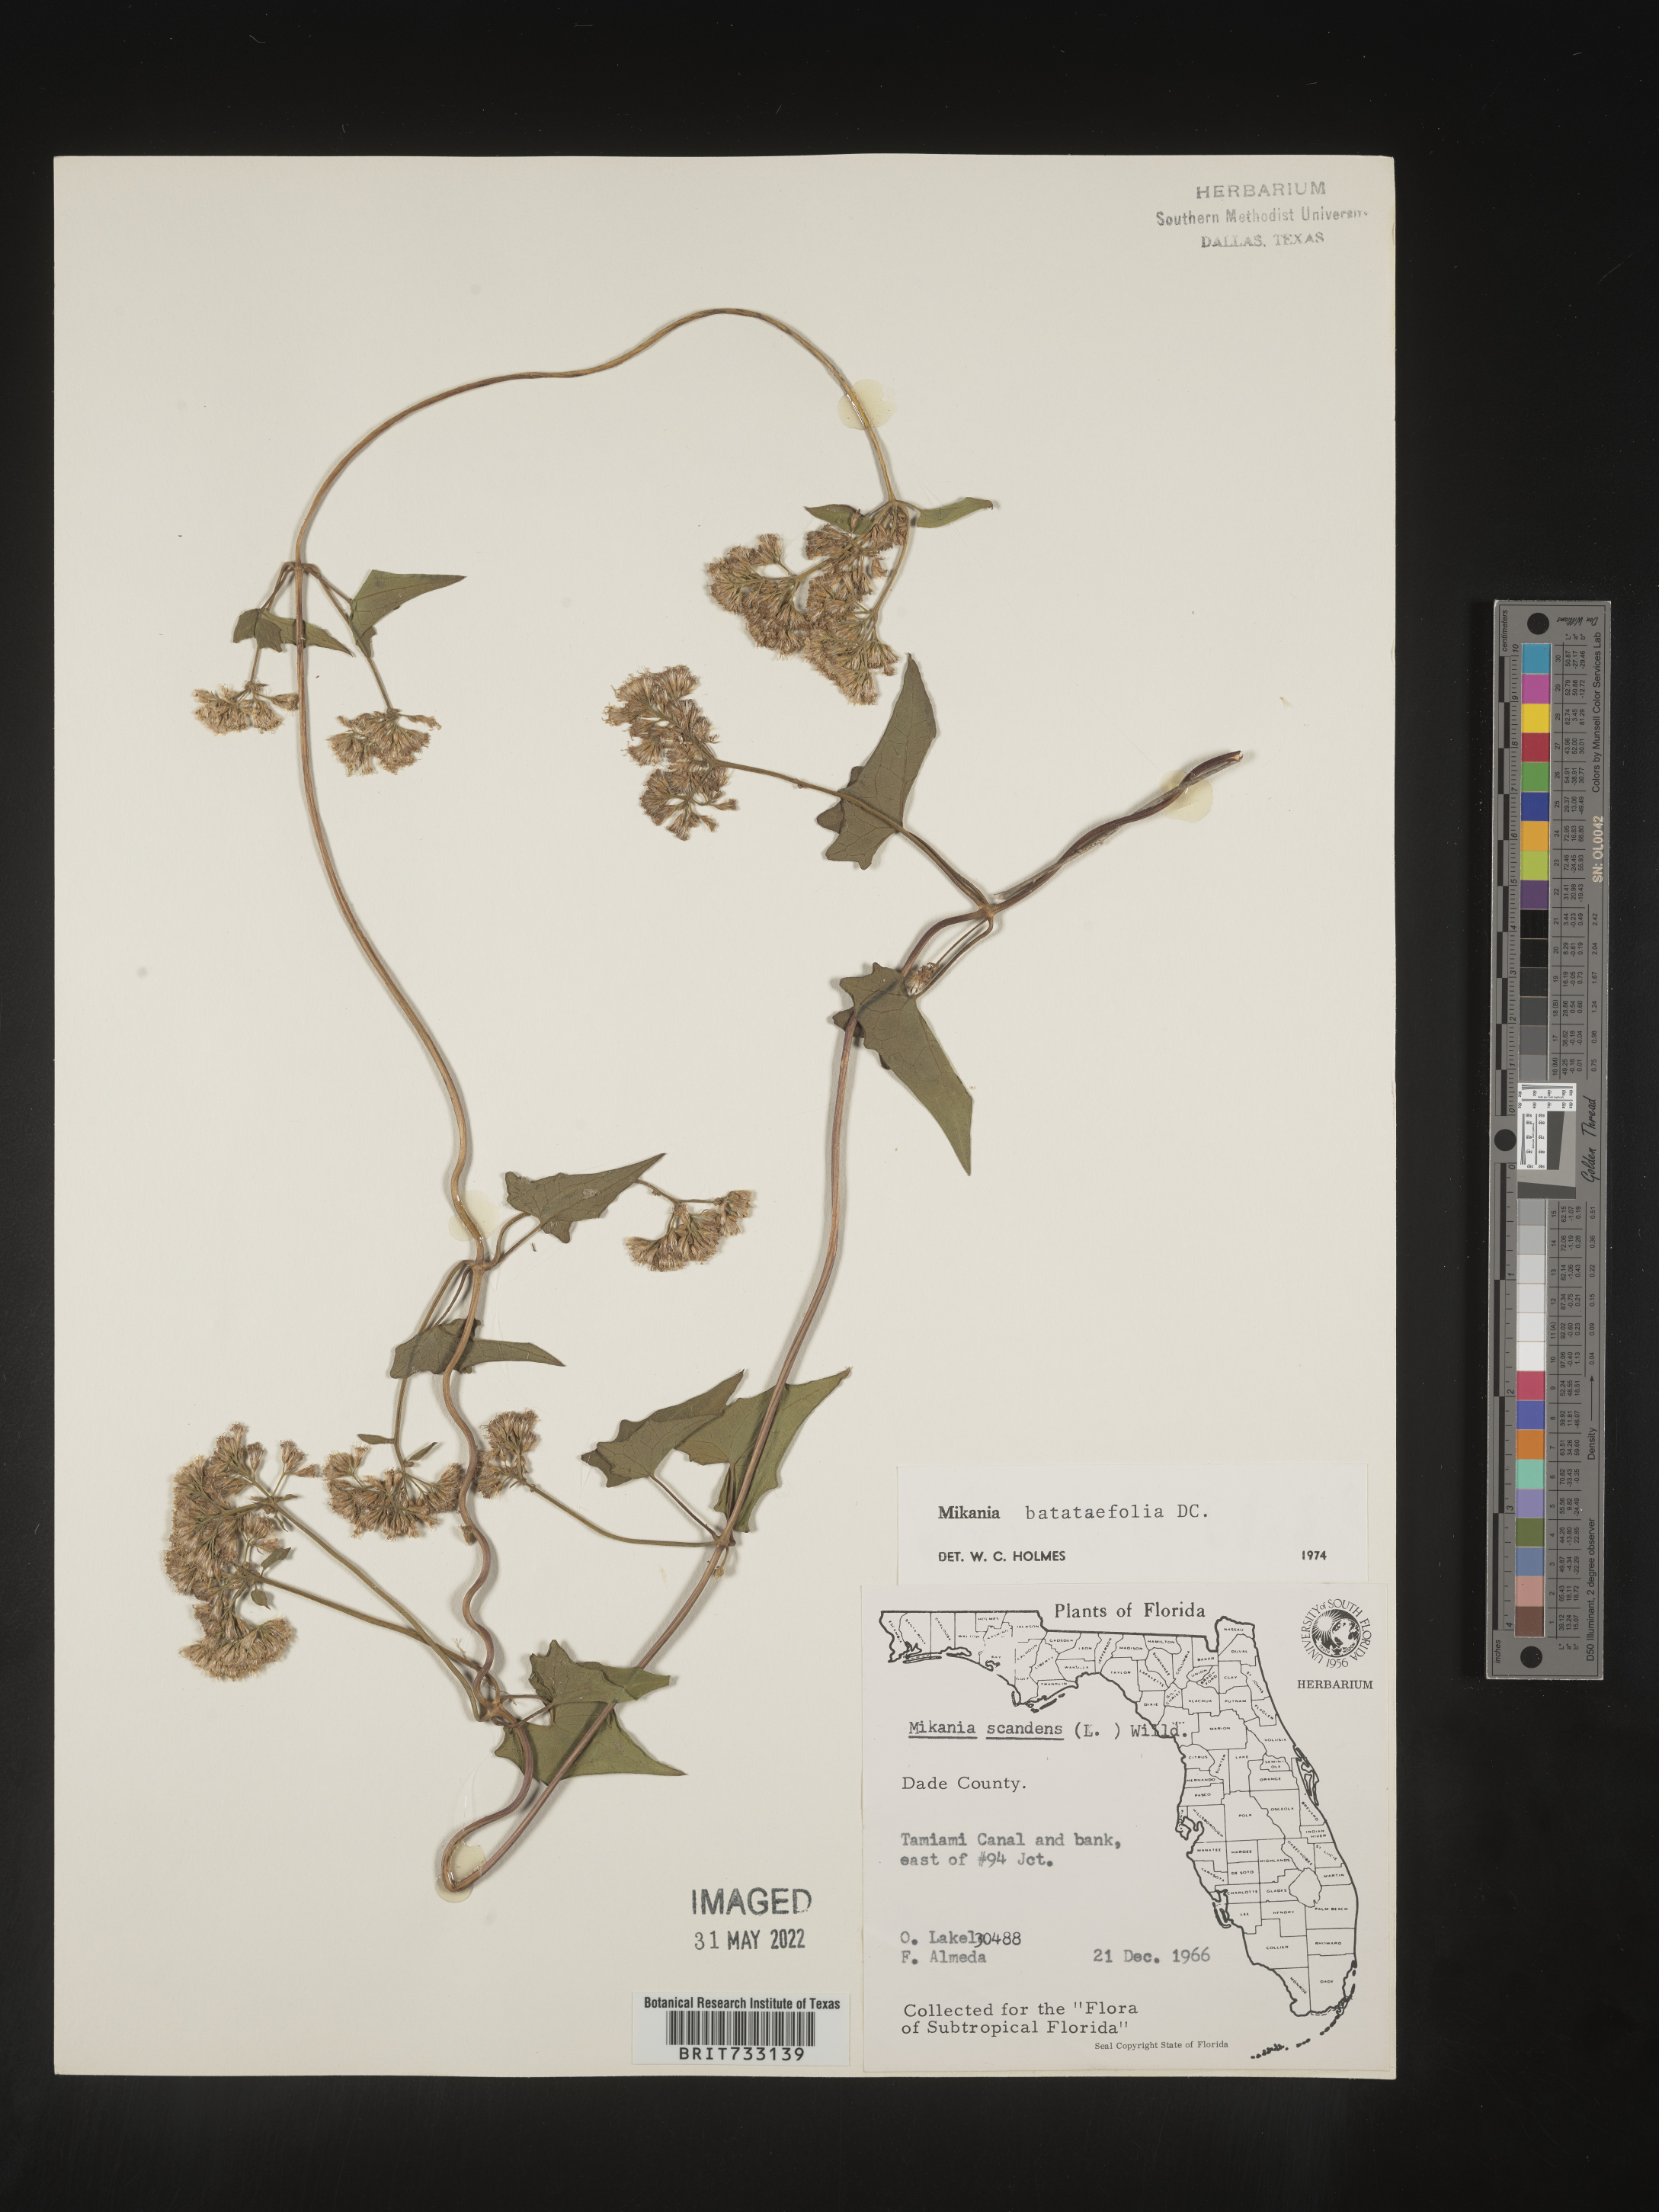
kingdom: Plantae
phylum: Tracheophyta
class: Magnoliopsida
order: Asterales
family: Asteraceae
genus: Mikania
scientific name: Mikania
